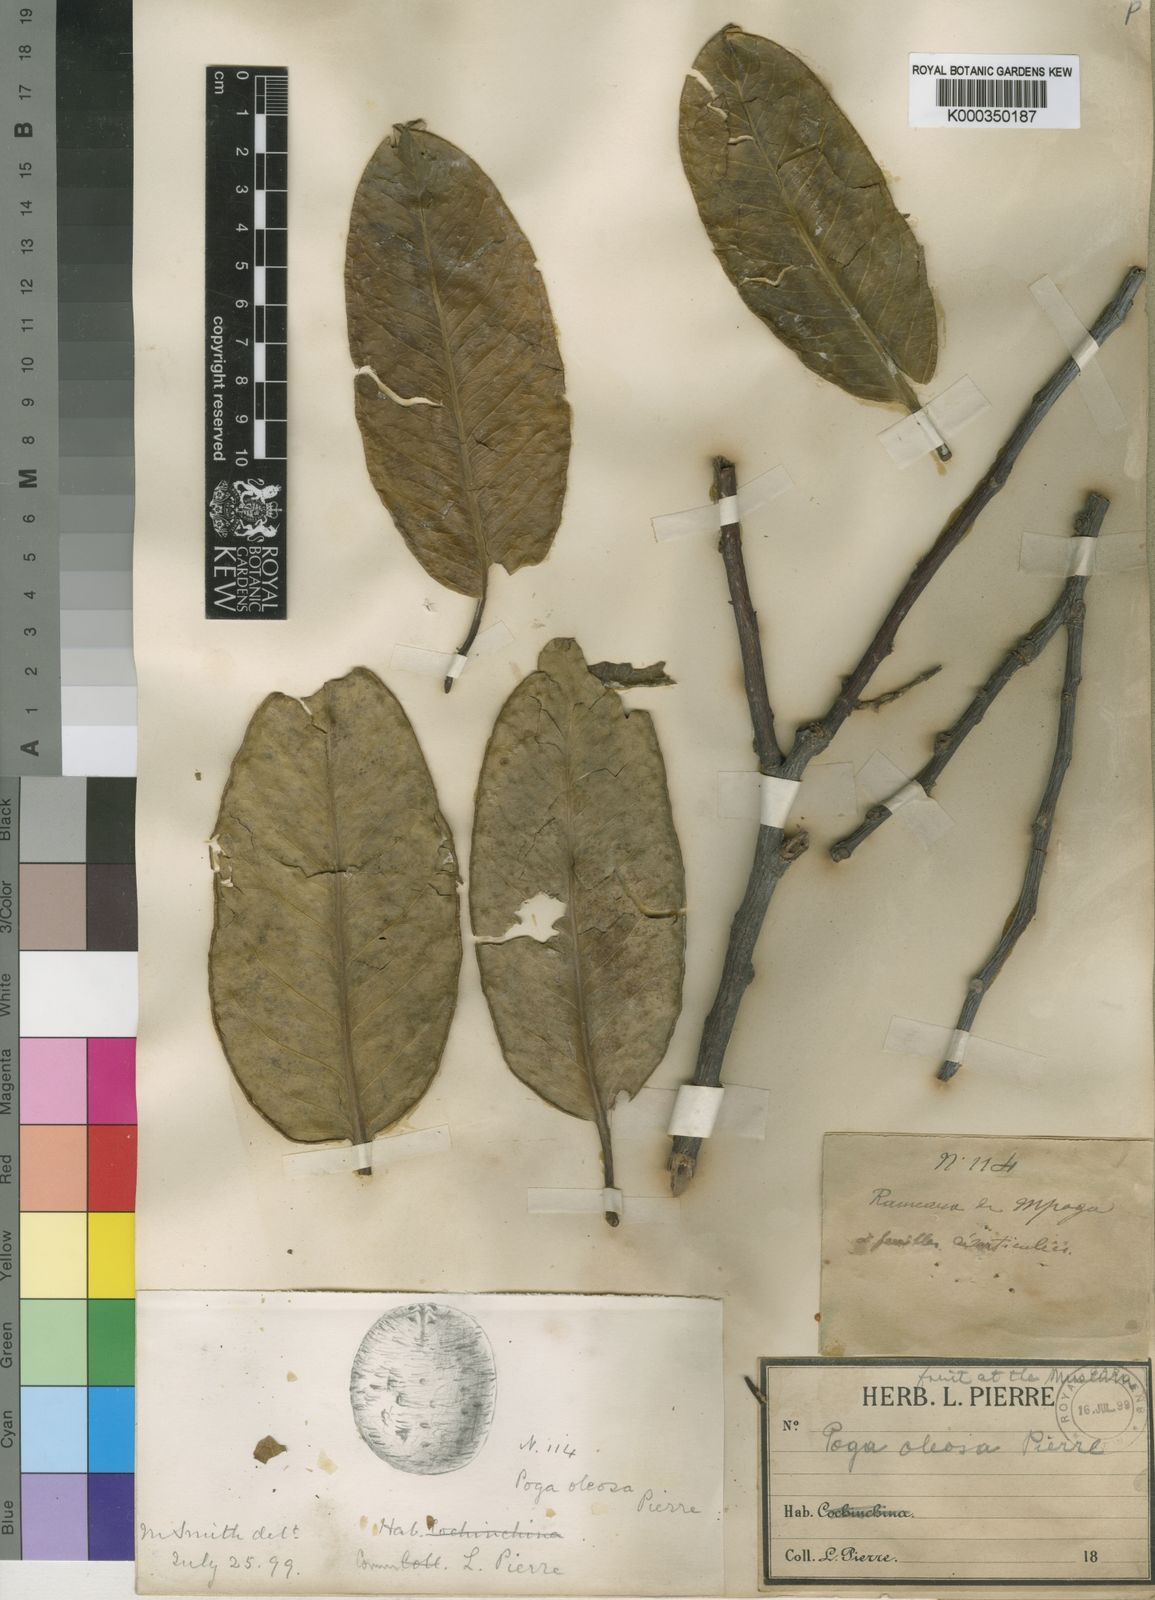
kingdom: Plantae
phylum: Tracheophyta
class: Magnoliopsida
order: Cucurbitales
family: Anisophylleaceae
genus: Poga
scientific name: Poga oleosa
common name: African brazil nut
